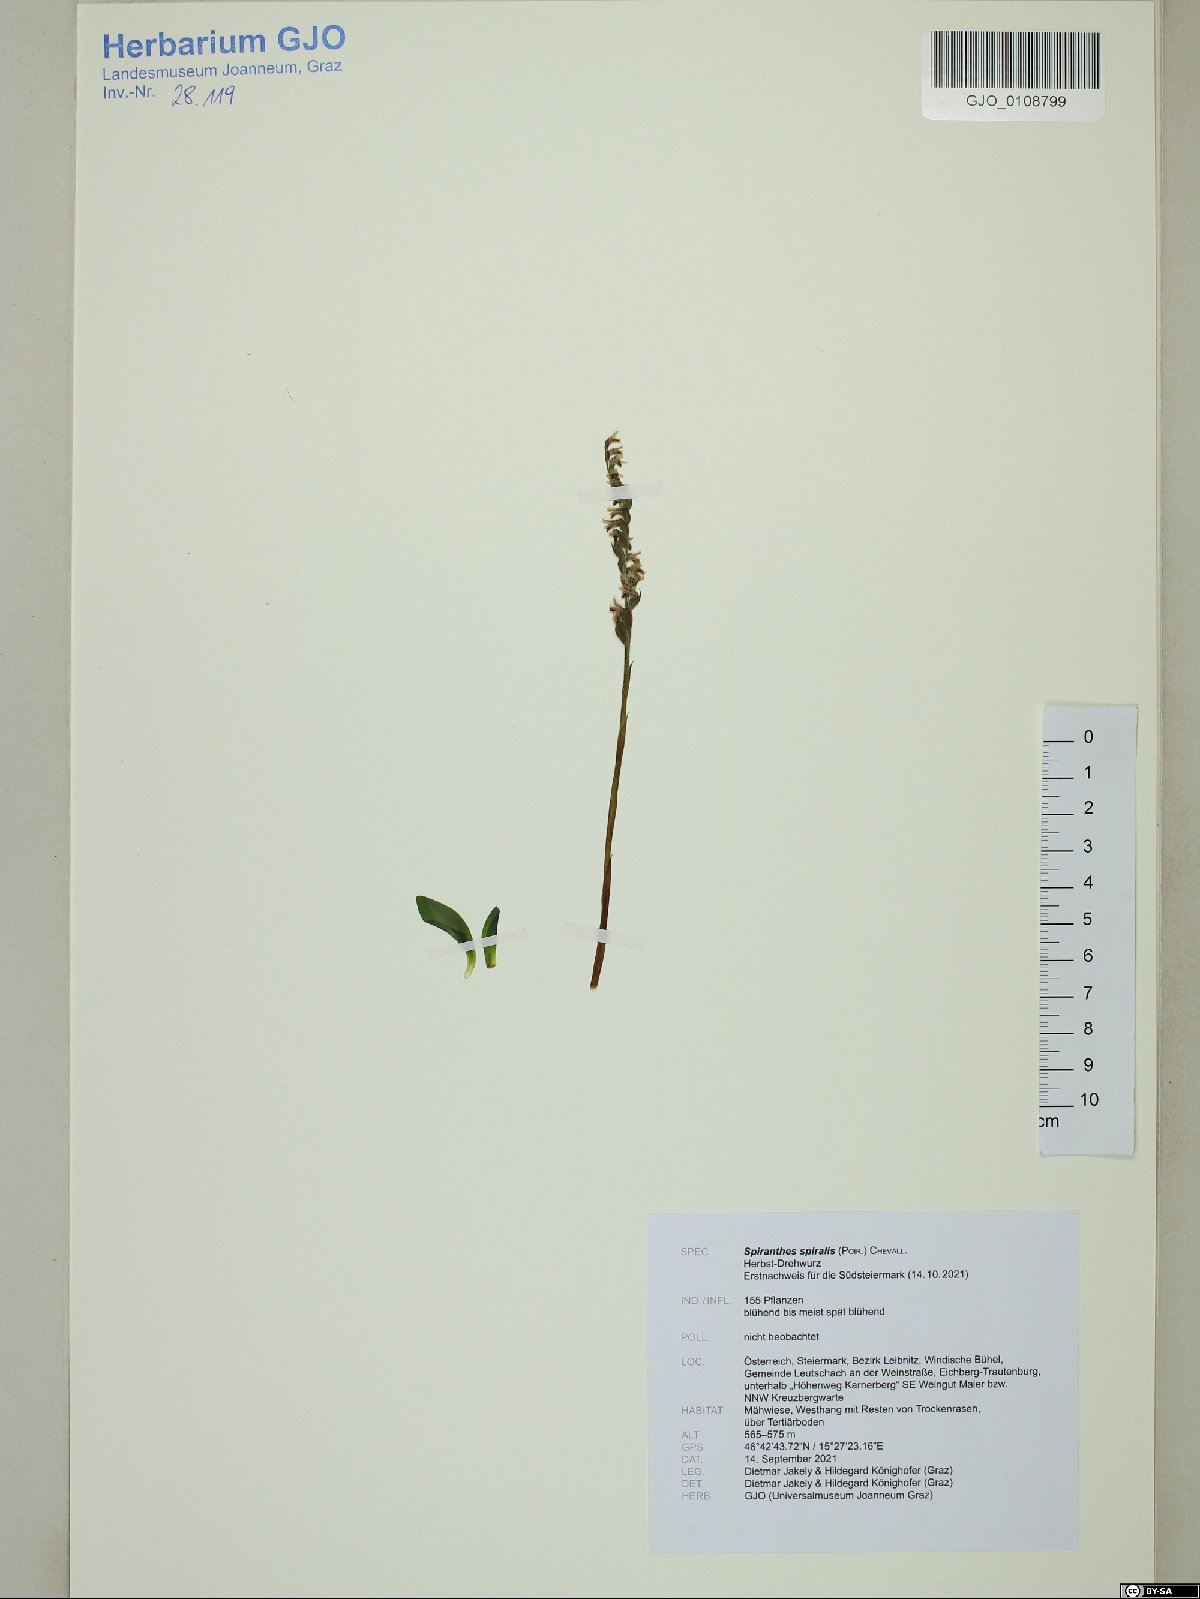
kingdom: Plantae
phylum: Tracheophyta
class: Liliopsida
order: Asparagales
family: Orchidaceae
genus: Spiranthes
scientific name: Spiranthes spiralis
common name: Autumn lady's-tresses
